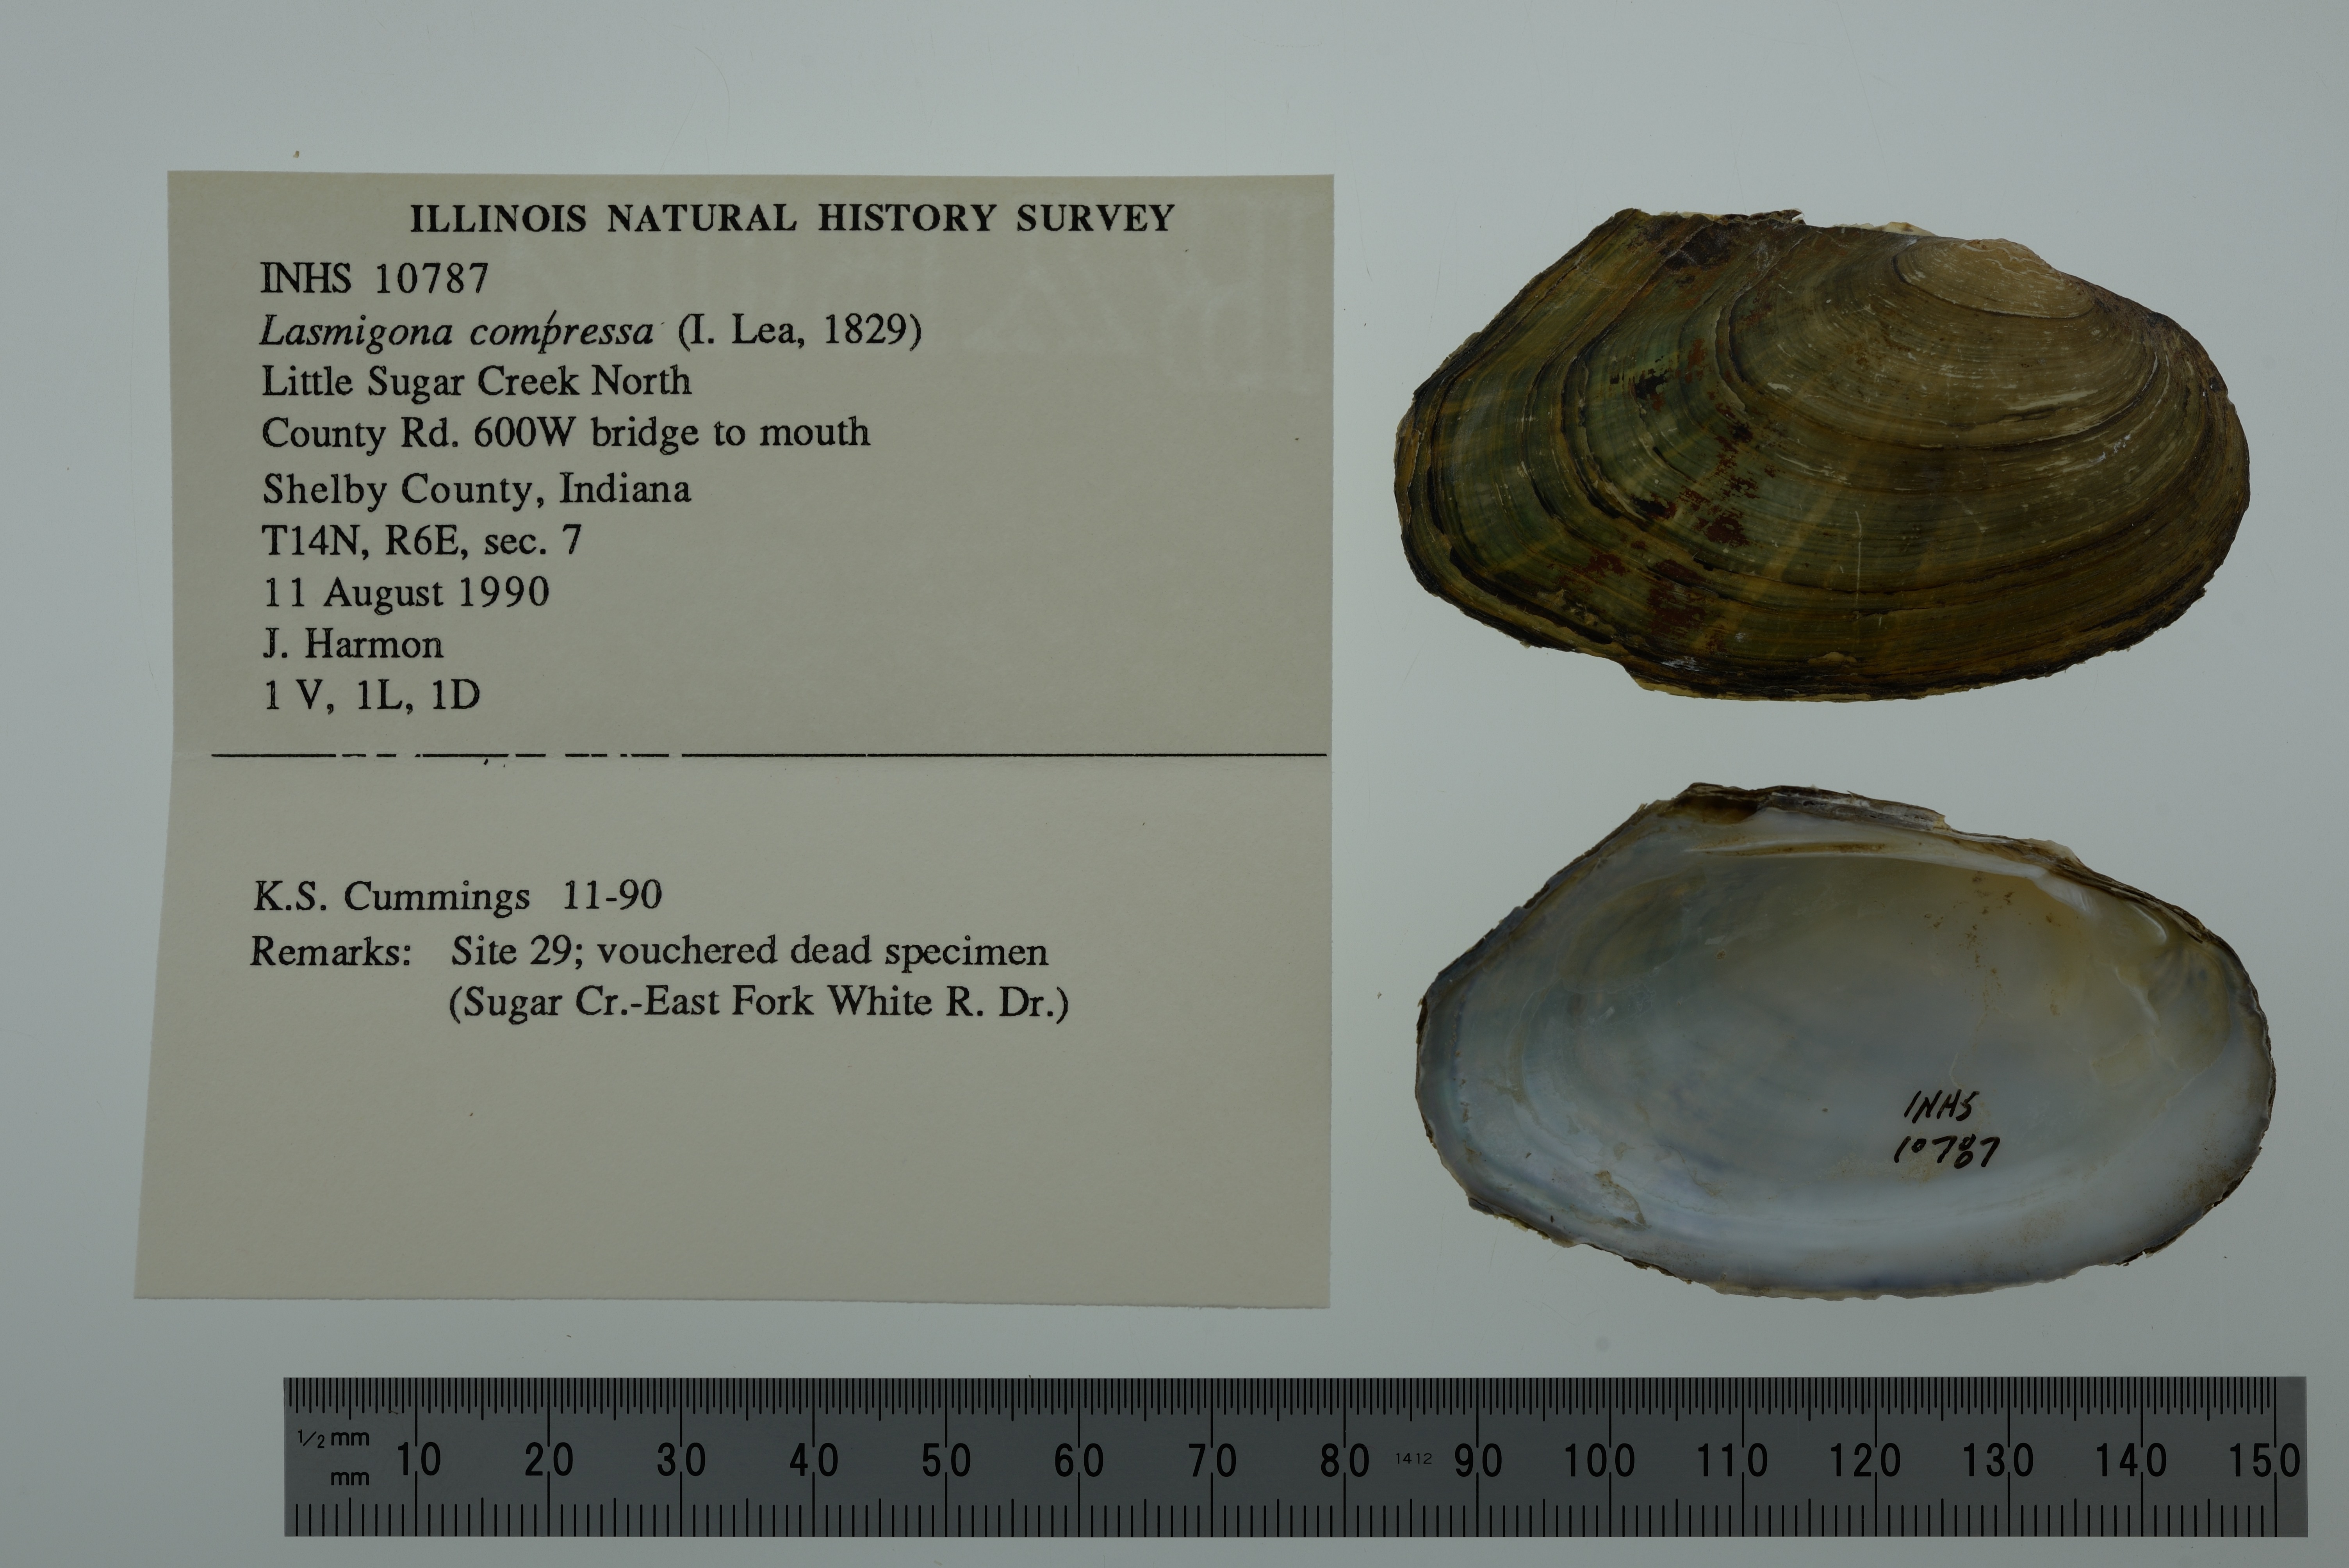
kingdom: Animalia
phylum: Mollusca
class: Bivalvia
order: Unionida
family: Unionidae
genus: Lasmigona
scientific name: Lasmigona compressa
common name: Creek heelsplitter
